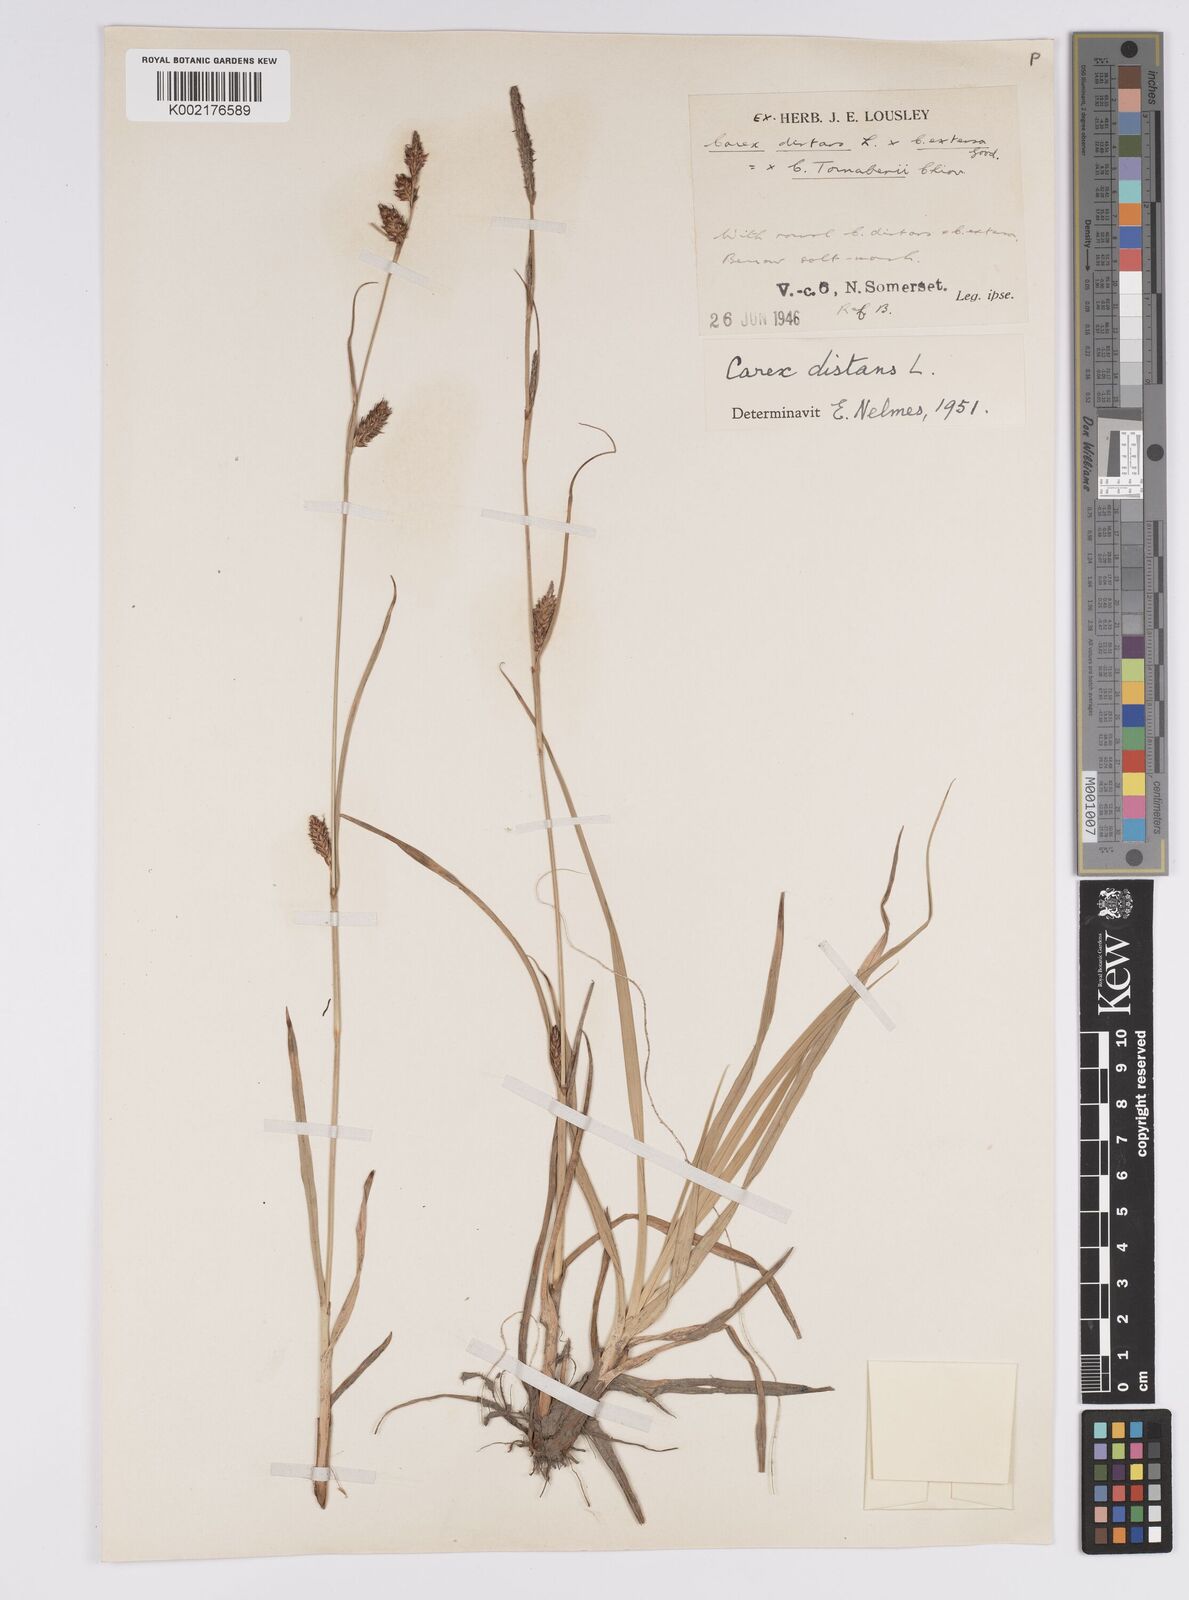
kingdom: Plantae
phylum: Tracheophyta
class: Liliopsida
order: Poales
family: Cyperaceae
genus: Carex
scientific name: Carex distans
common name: Distant sedge
